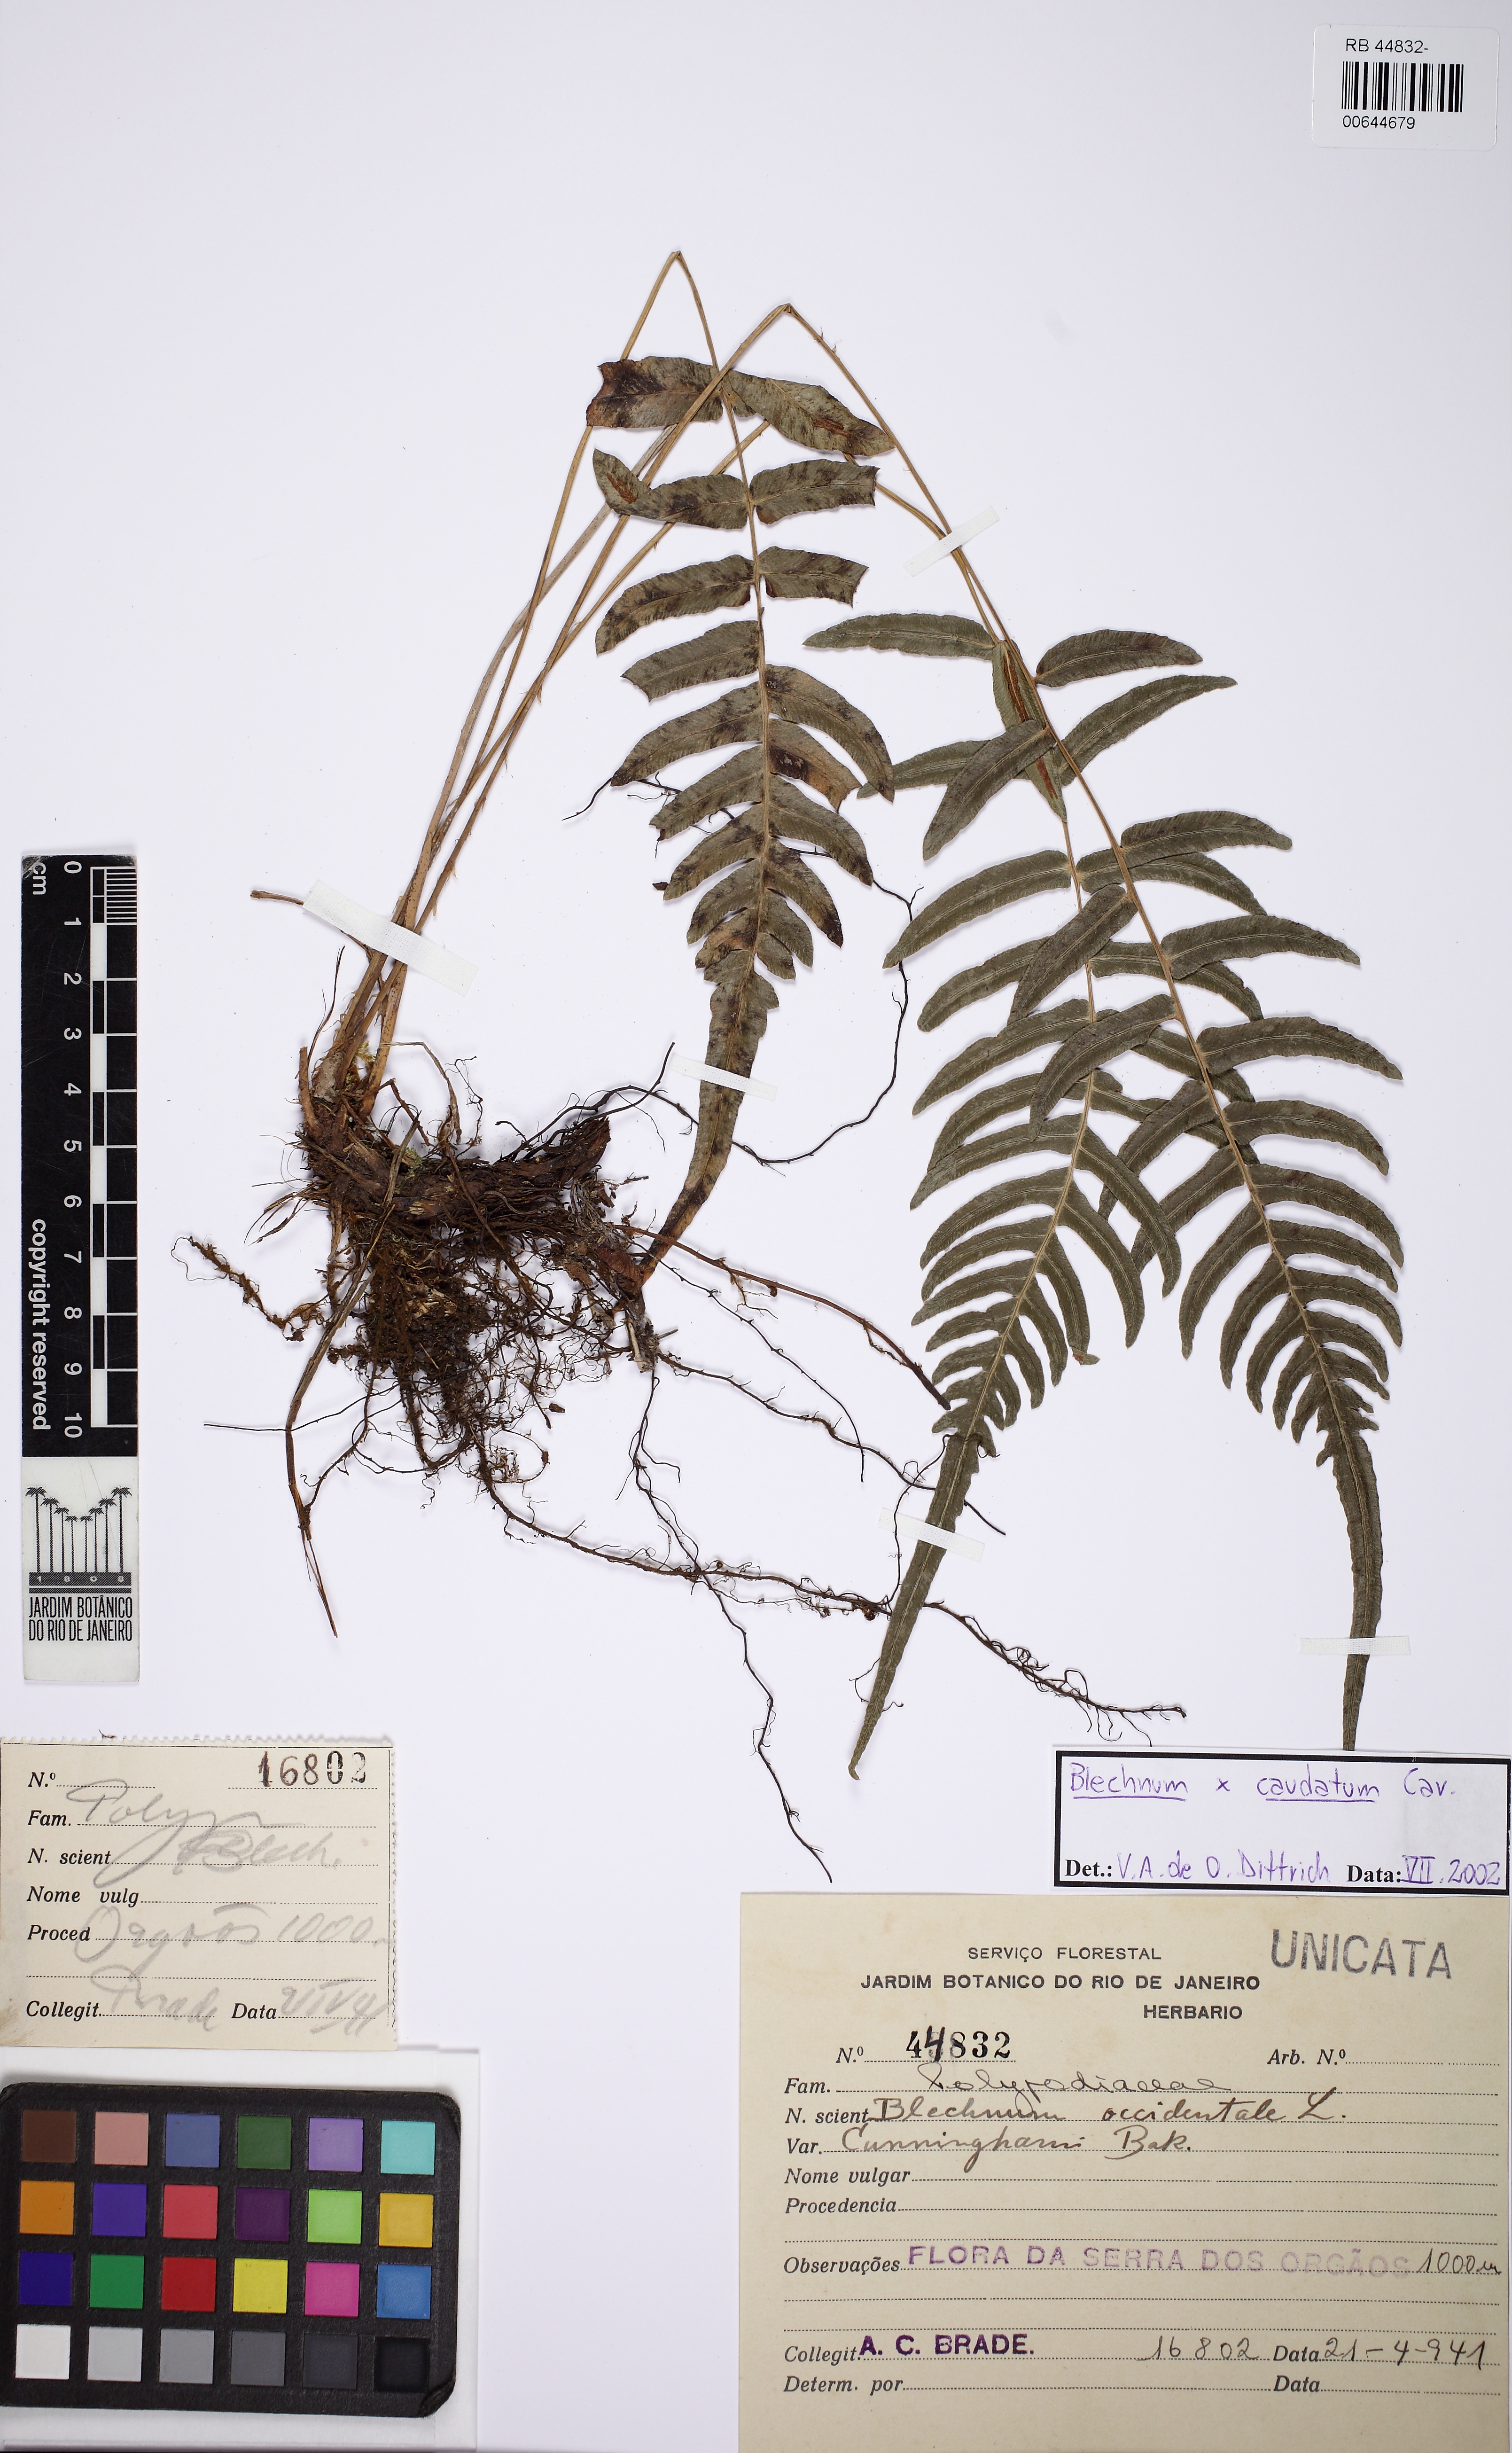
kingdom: Plantae
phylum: Tracheophyta
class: Polypodiopsida
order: Polypodiales
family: Blechnaceae
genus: Blechnum
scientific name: Blechnum caudatum
